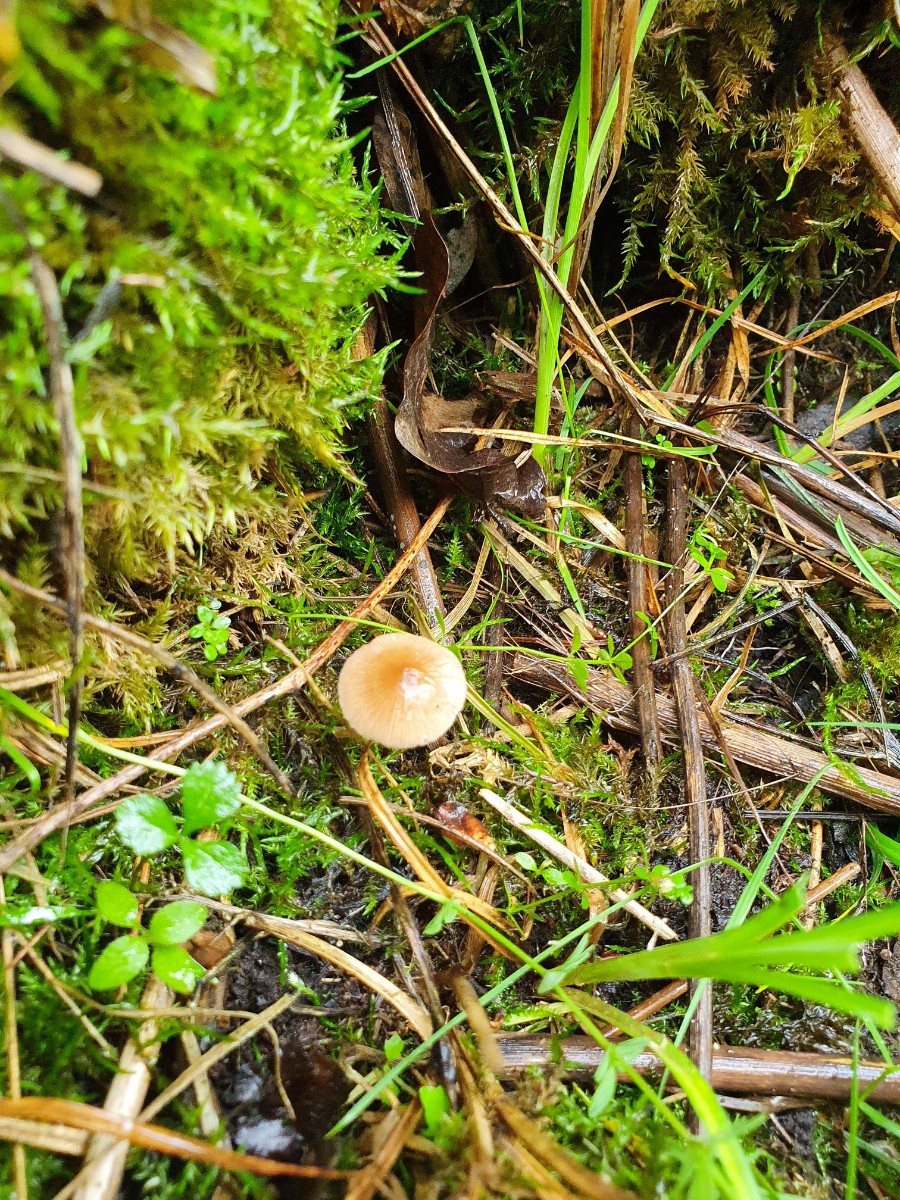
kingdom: Fungi
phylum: Basidiomycota
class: Agaricomycetes
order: Agaricales
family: Psathyrellaceae
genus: Psathyrella
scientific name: Psathyrella rubiginosa
